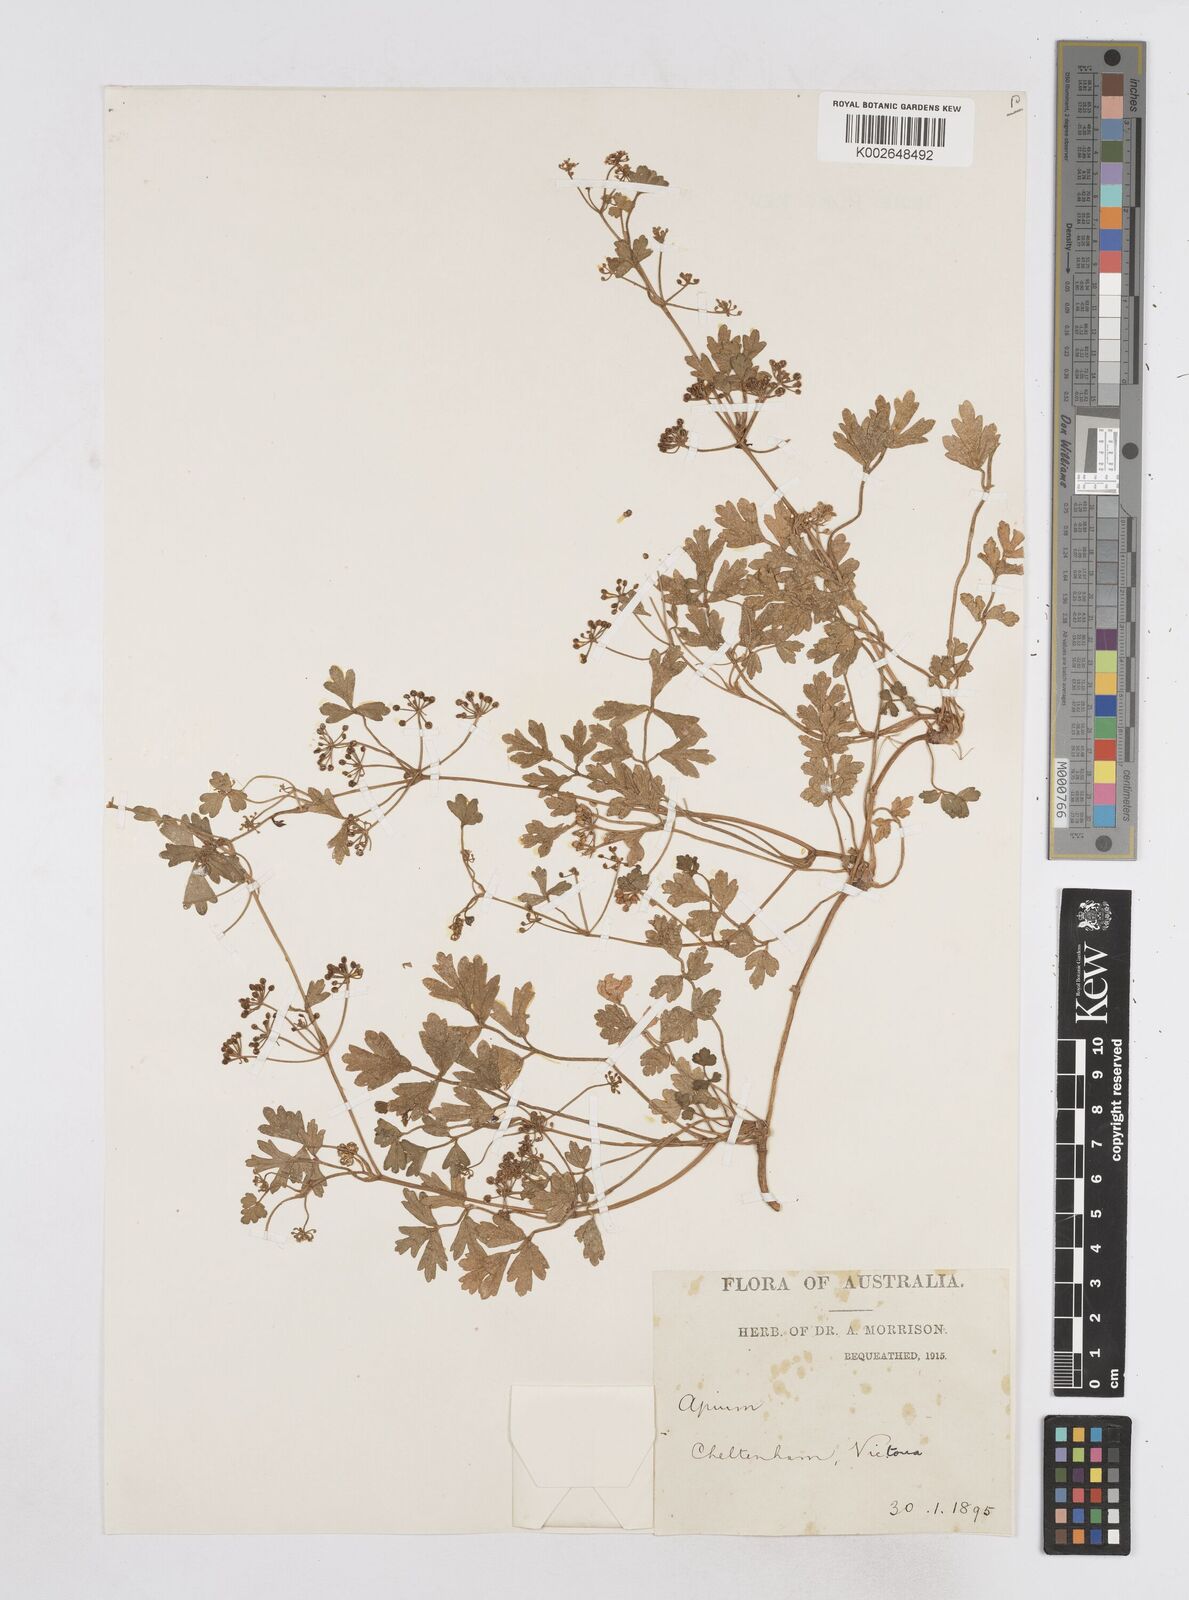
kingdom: Plantae
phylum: Tracheophyta
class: Magnoliopsida
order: Apiales
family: Apiaceae
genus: Apium
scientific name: Apium prostratum
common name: Prostrate marshwort
